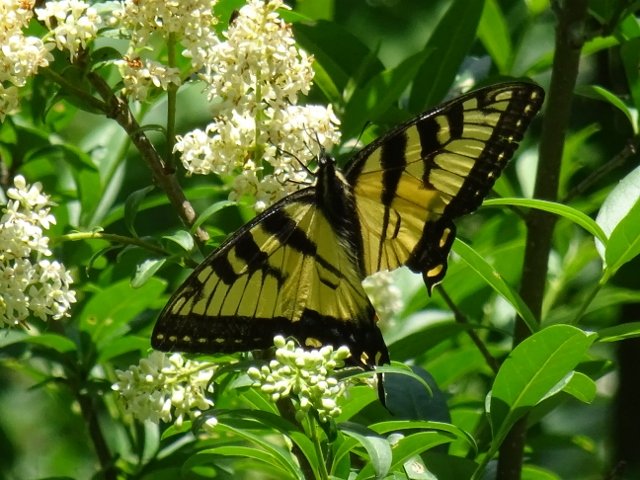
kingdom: Animalia
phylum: Arthropoda
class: Insecta
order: Lepidoptera
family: Papilionidae
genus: Pterourus
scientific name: Pterourus glaucus
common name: Eastern Tiger Swallowtail
